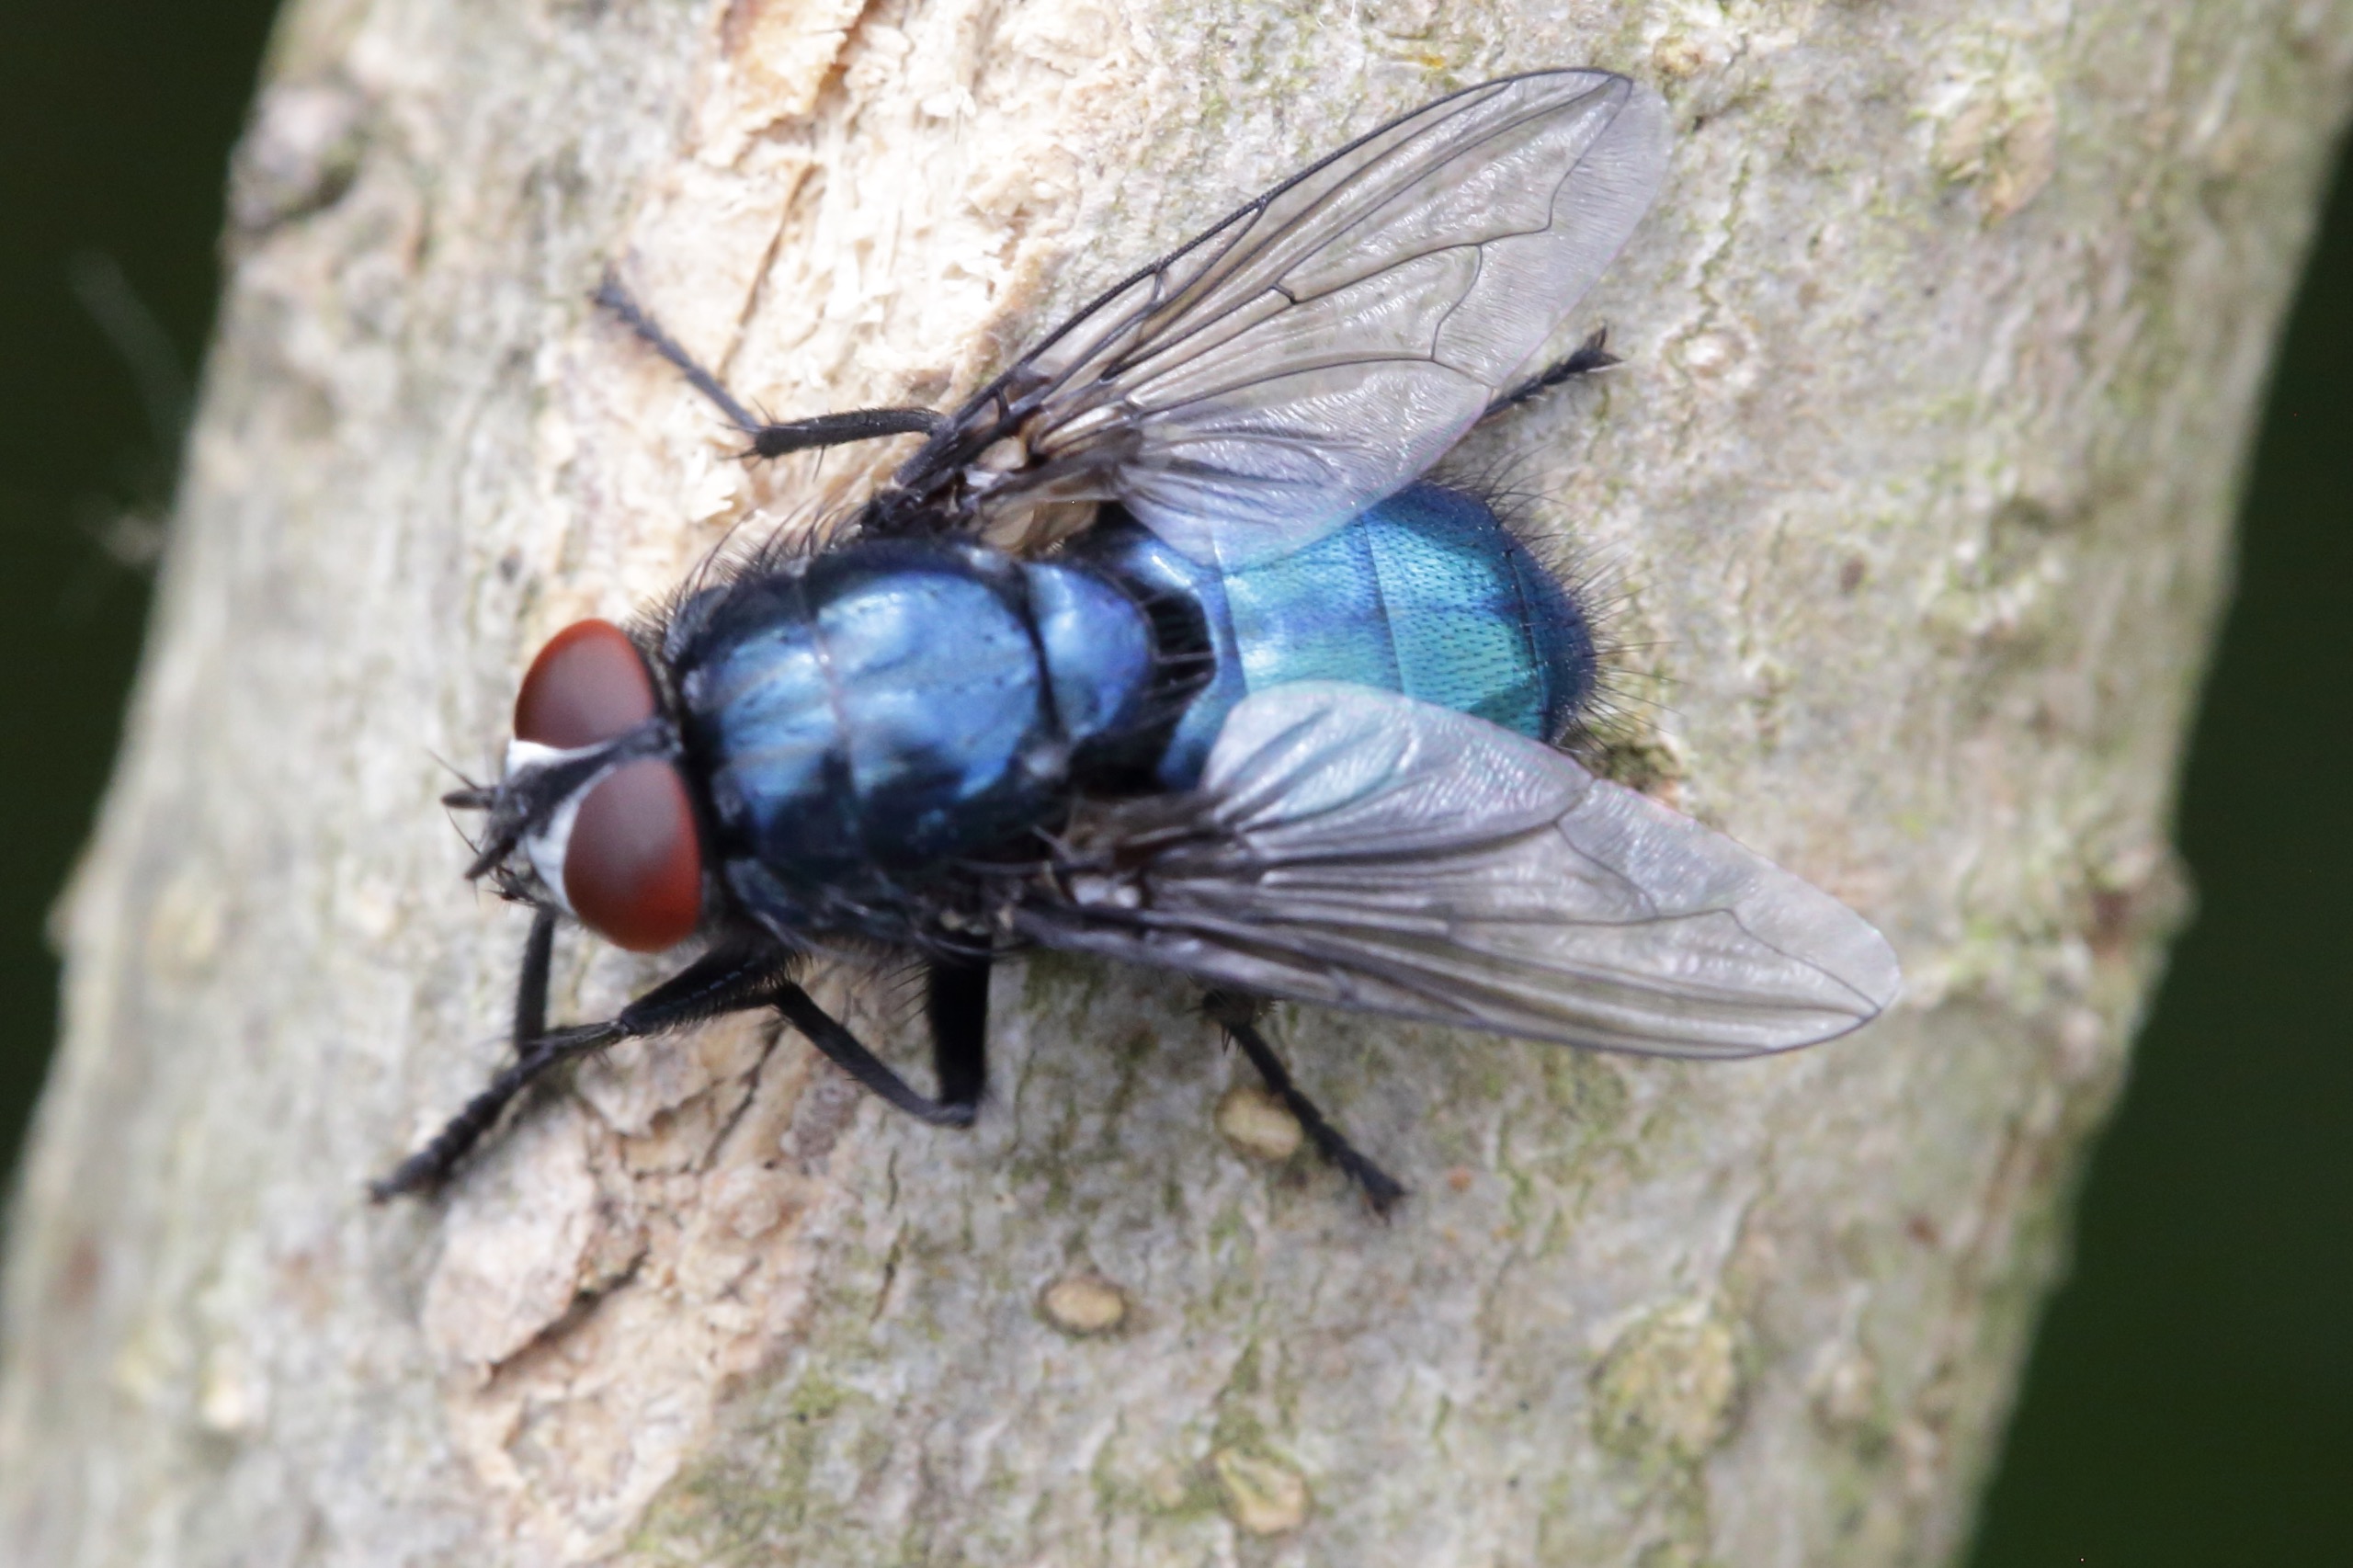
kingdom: Animalia
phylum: Arthropoda
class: Insecta
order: Diptera
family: Calliphoridae
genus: Protocalliphora
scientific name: Protocalliphora azurea
